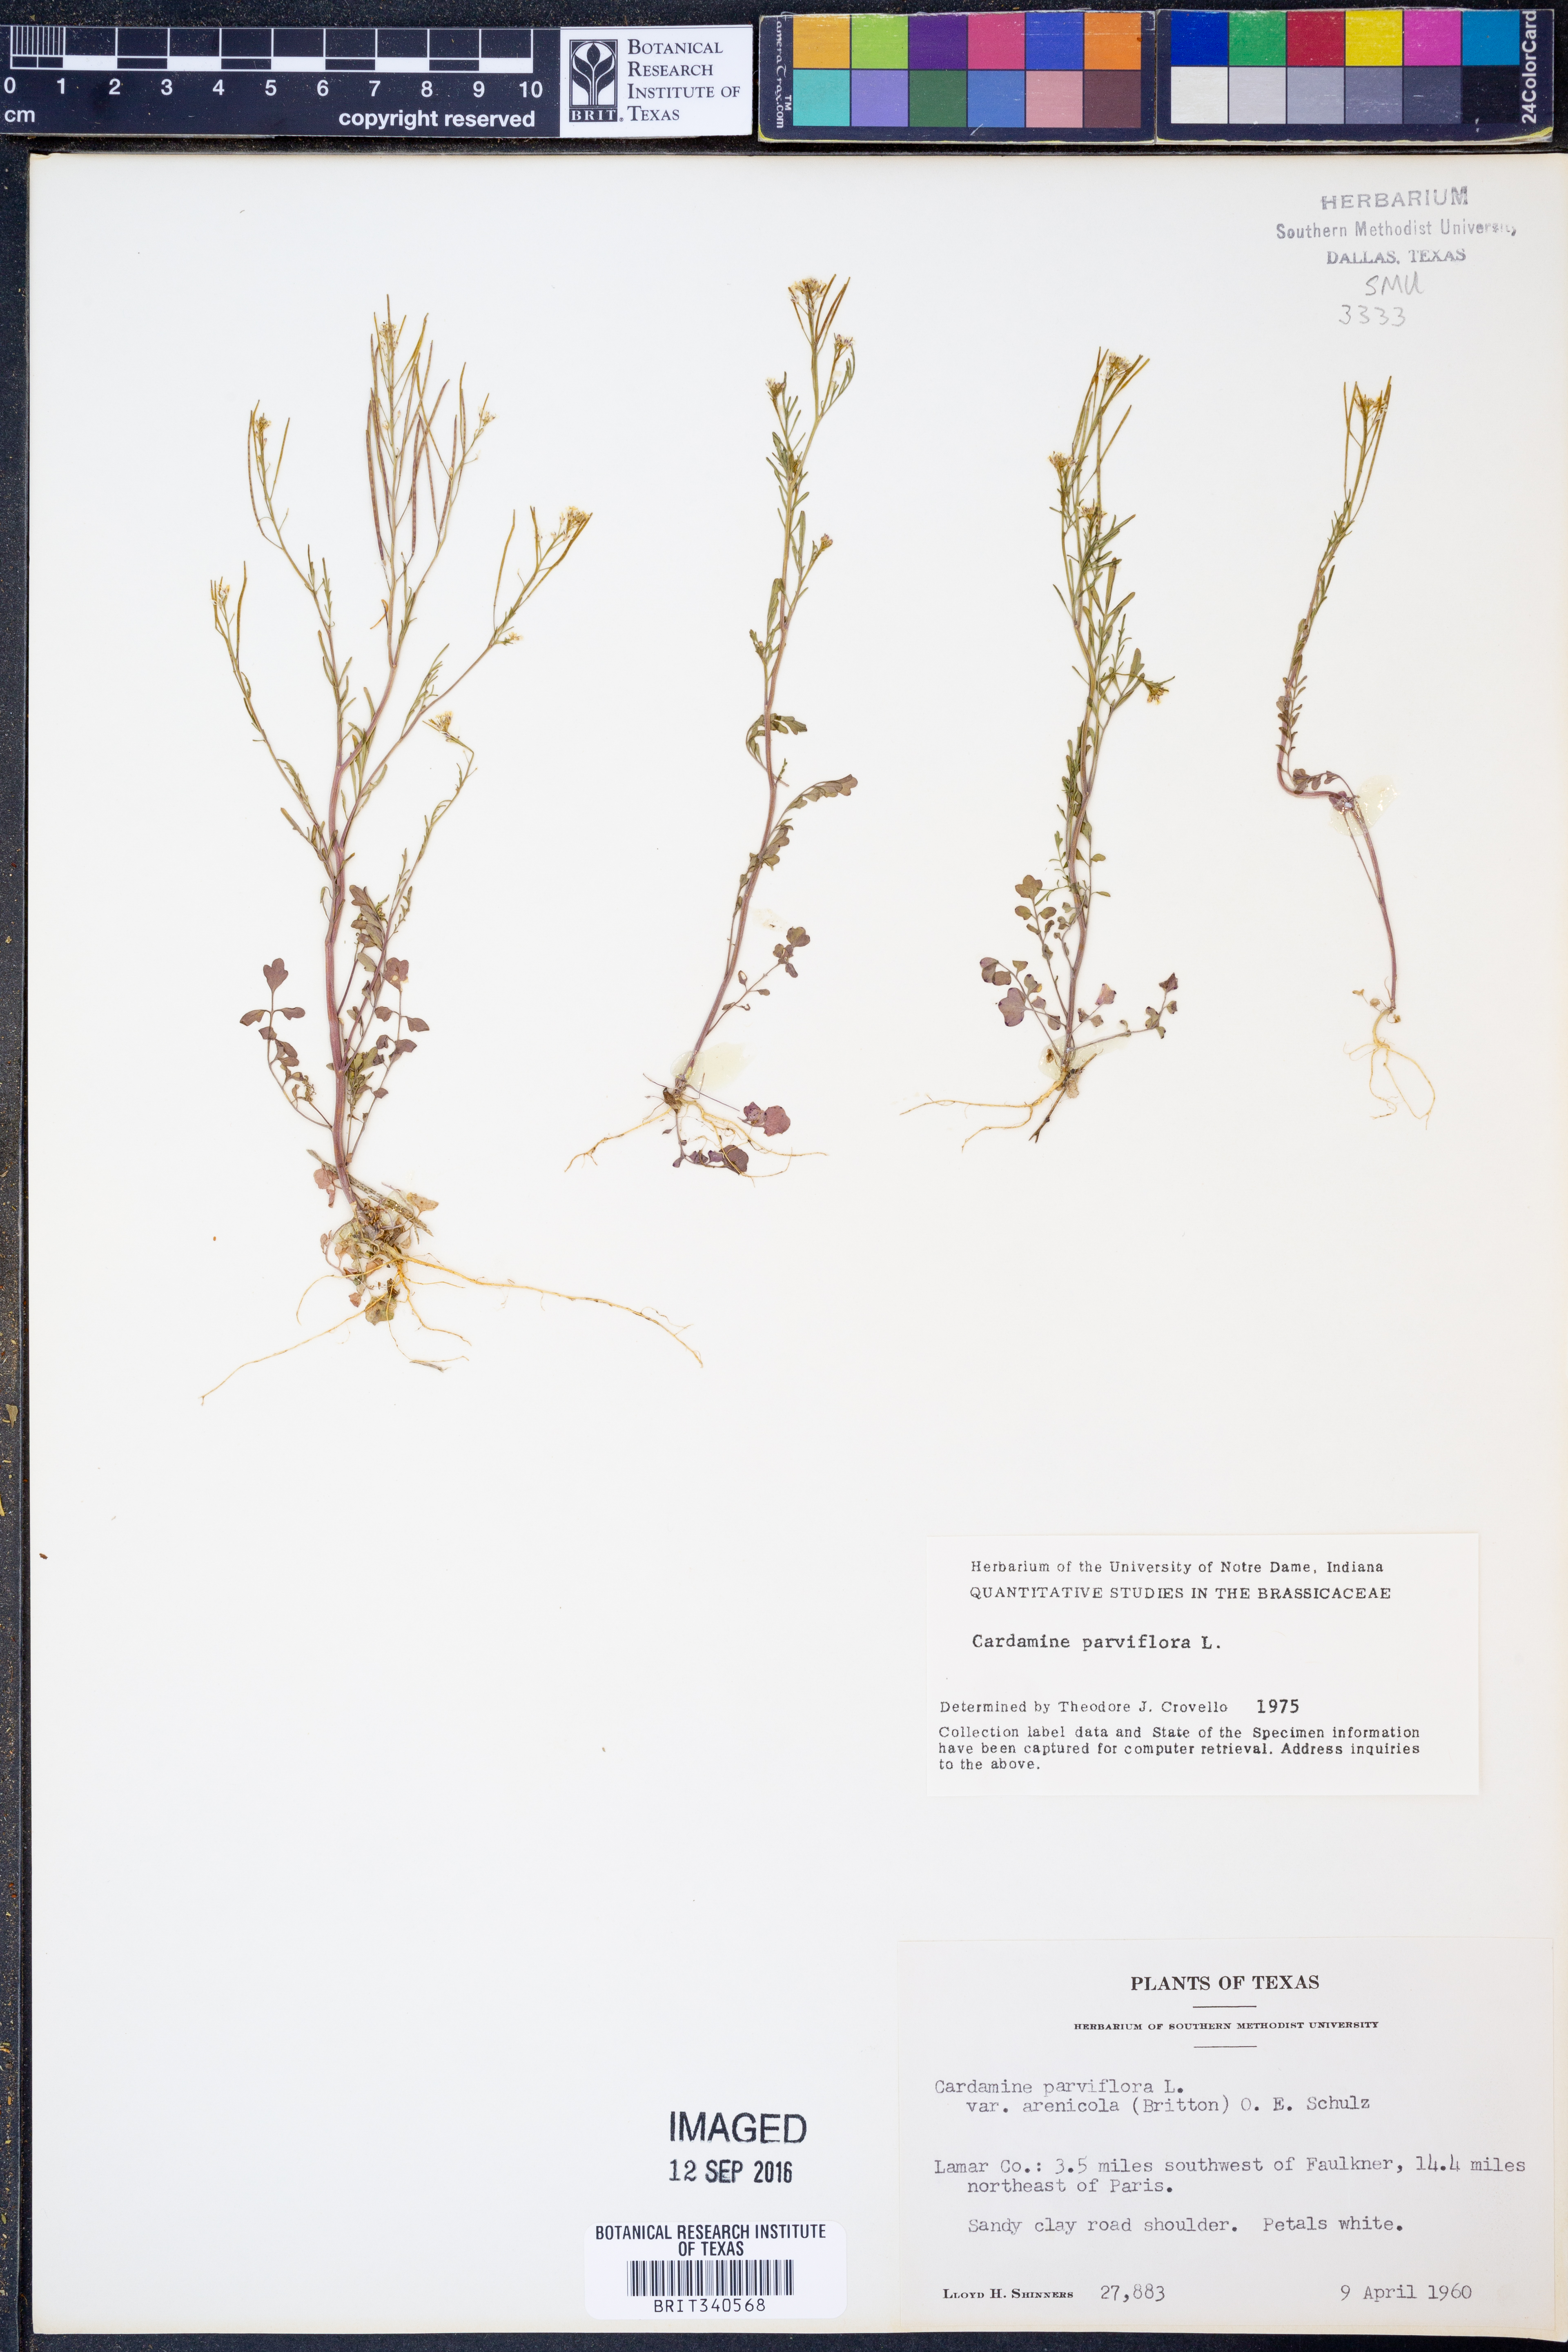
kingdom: Plantae
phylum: Tracheophyta
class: Magnoliopsida
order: Brassicales
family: Brassicaceae
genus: Cardamine
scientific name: Cardamine parviflora
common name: Sand bittercress
